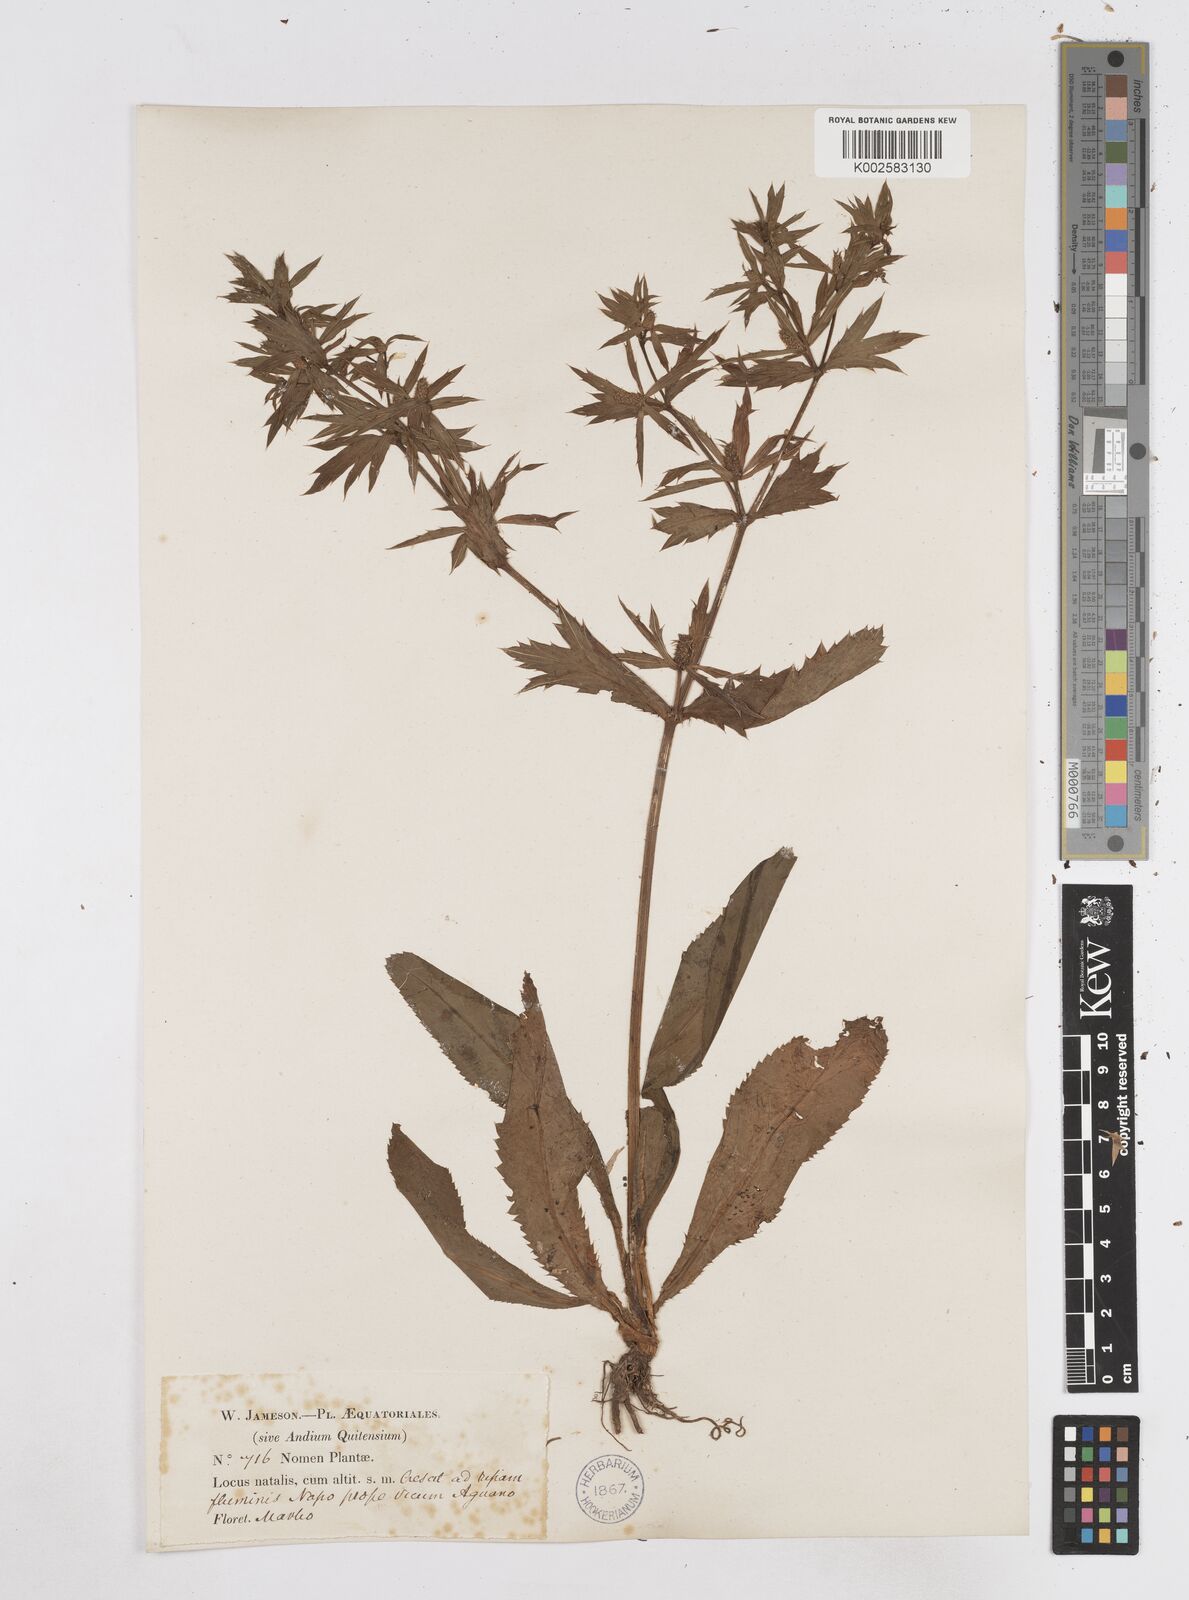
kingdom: Plantae
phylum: Tracheophyta
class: Magnoliopsida
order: Apiales
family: Apiaceae
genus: Eryngium
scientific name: Eryngium foetidum
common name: Fitweed
